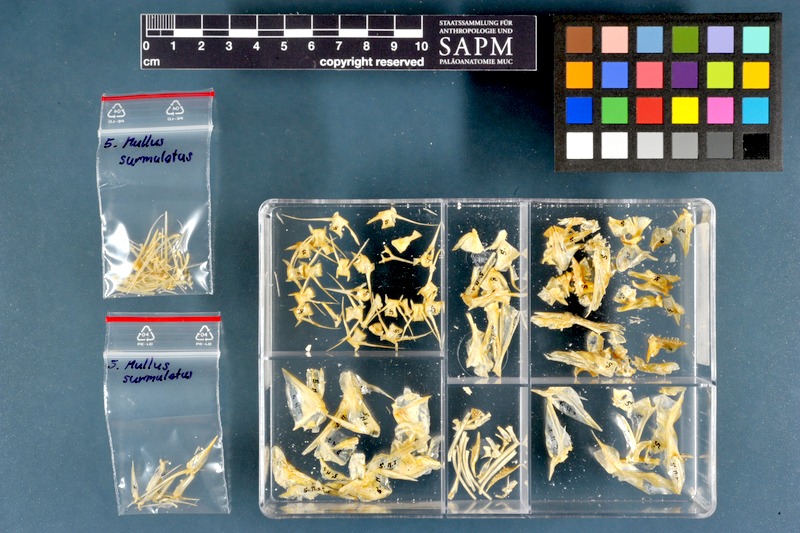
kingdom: Animalia
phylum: Chordata
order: Perciformes
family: Mullidae
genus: Mullus
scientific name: Mullus surmuletus
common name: Red mullet
